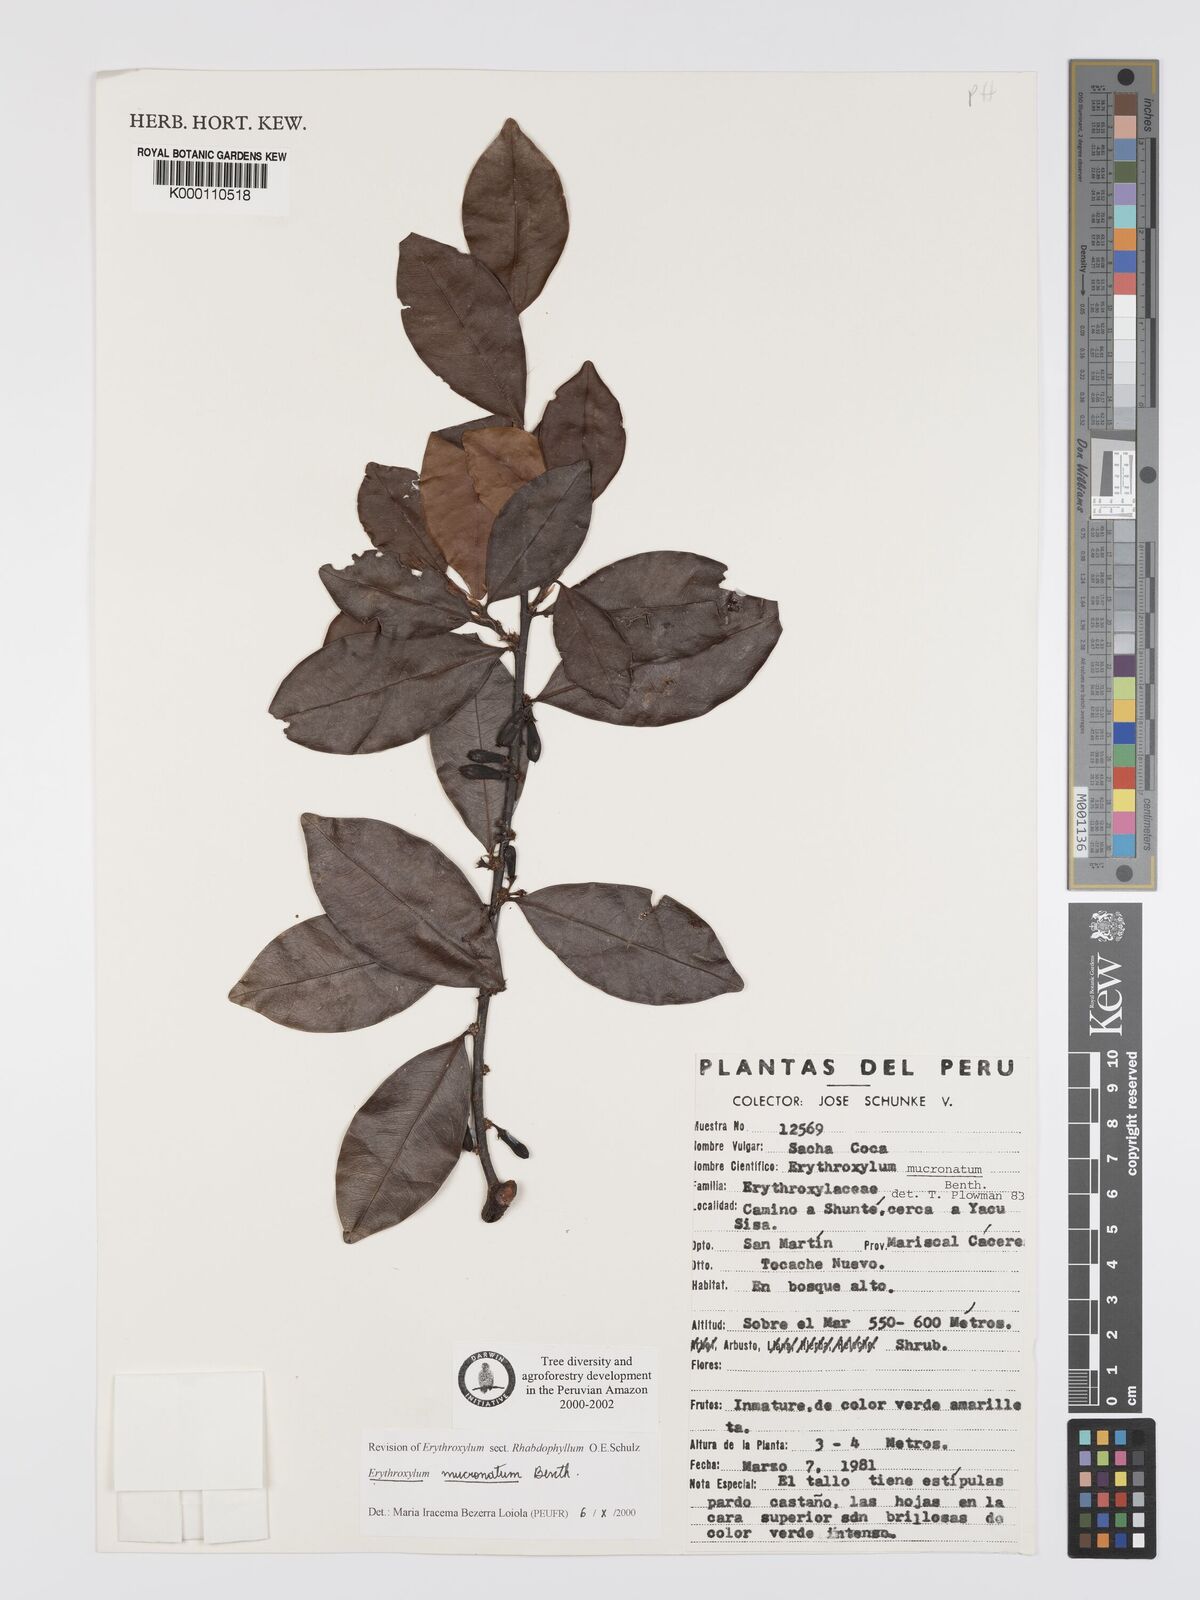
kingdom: Plantae
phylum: Tracheophyta
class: Magnoliopsida
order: Malpighiales
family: Erythroxylaceae
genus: Erythroxylum
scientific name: Erythroxylum mucronatum
